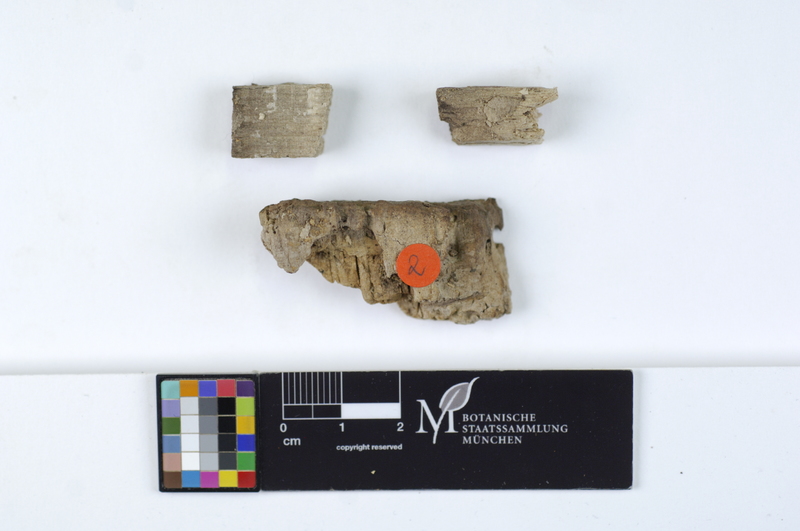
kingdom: Plantae
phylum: Tracheophyta
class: Magnoliopsida
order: Fagales
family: Fagaceae
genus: Fagus
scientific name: Fagus sylvatica
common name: Beech
